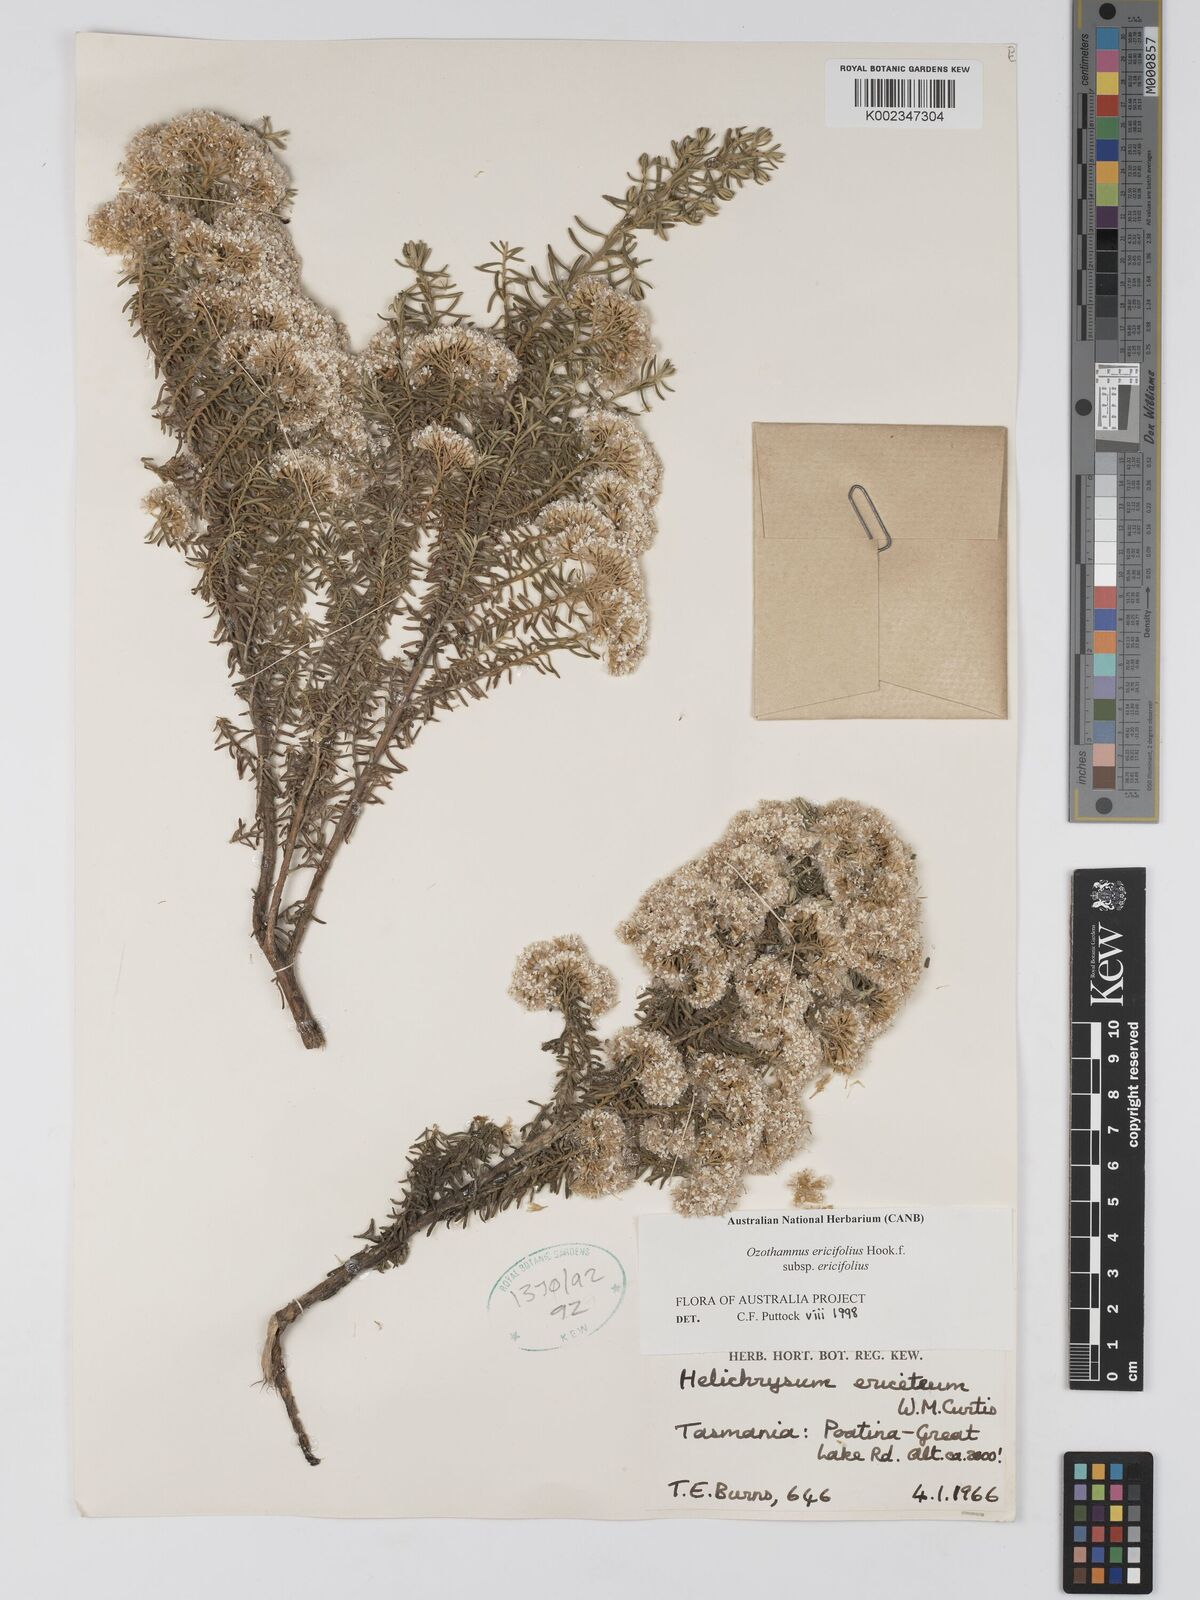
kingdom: Plantae
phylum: Tracheophyta
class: Magnoliopsida
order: Asterales
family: Asteraceae
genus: Ozothamnus
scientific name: Ozothamnus ericifolius
